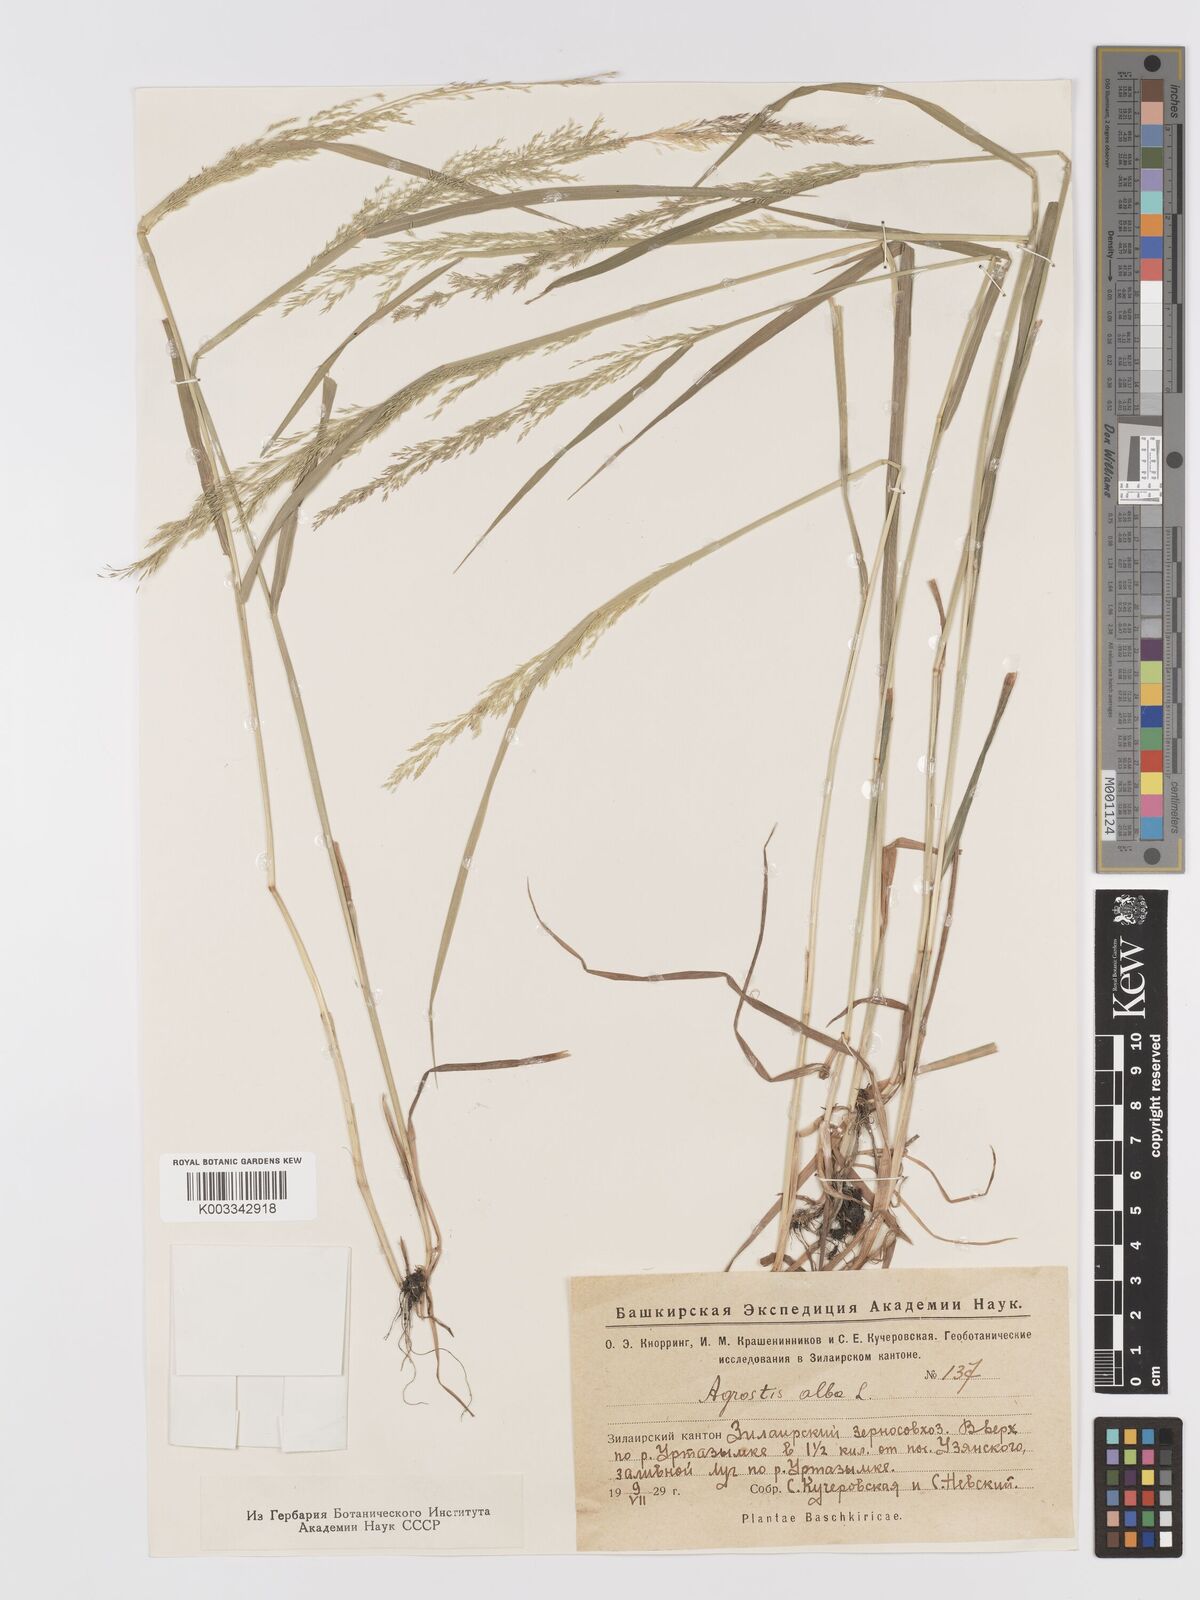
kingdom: Plantae
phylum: Tracheophyta
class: Liliopsida
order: Poales
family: Poaceae
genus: Agrostis
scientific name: Agrostis gigantea
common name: Black bent
